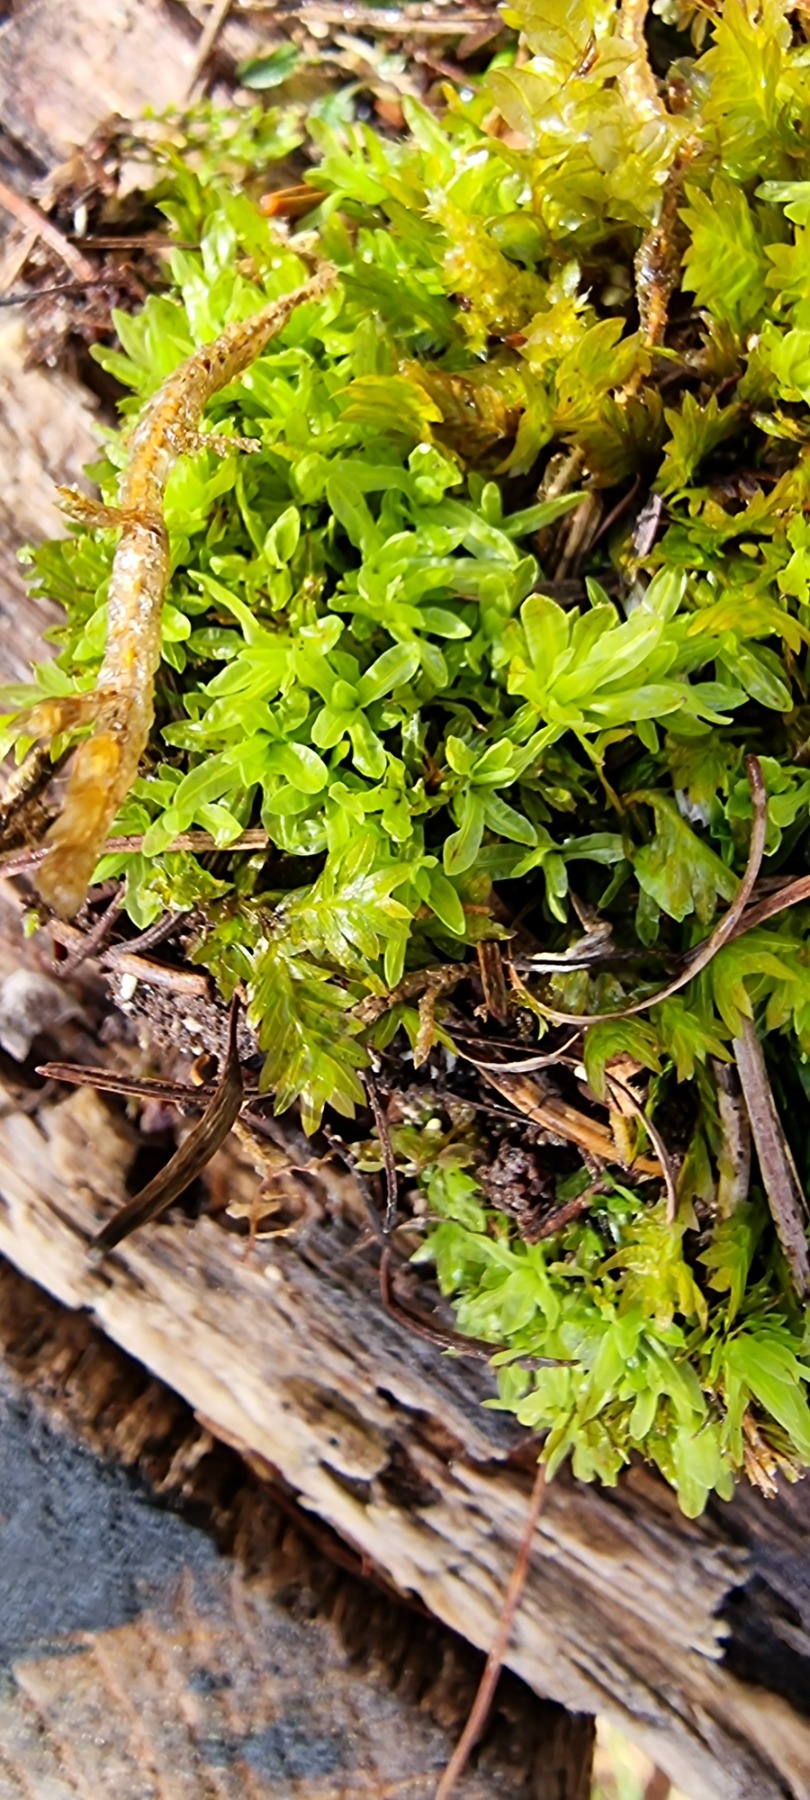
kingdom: Plantae
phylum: Bryophyta
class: Bryopsida
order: Encalyptales
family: Encalyptaceae
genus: Encalypta
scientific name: Encalypta streptocarpa
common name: Stor klokkehætte
